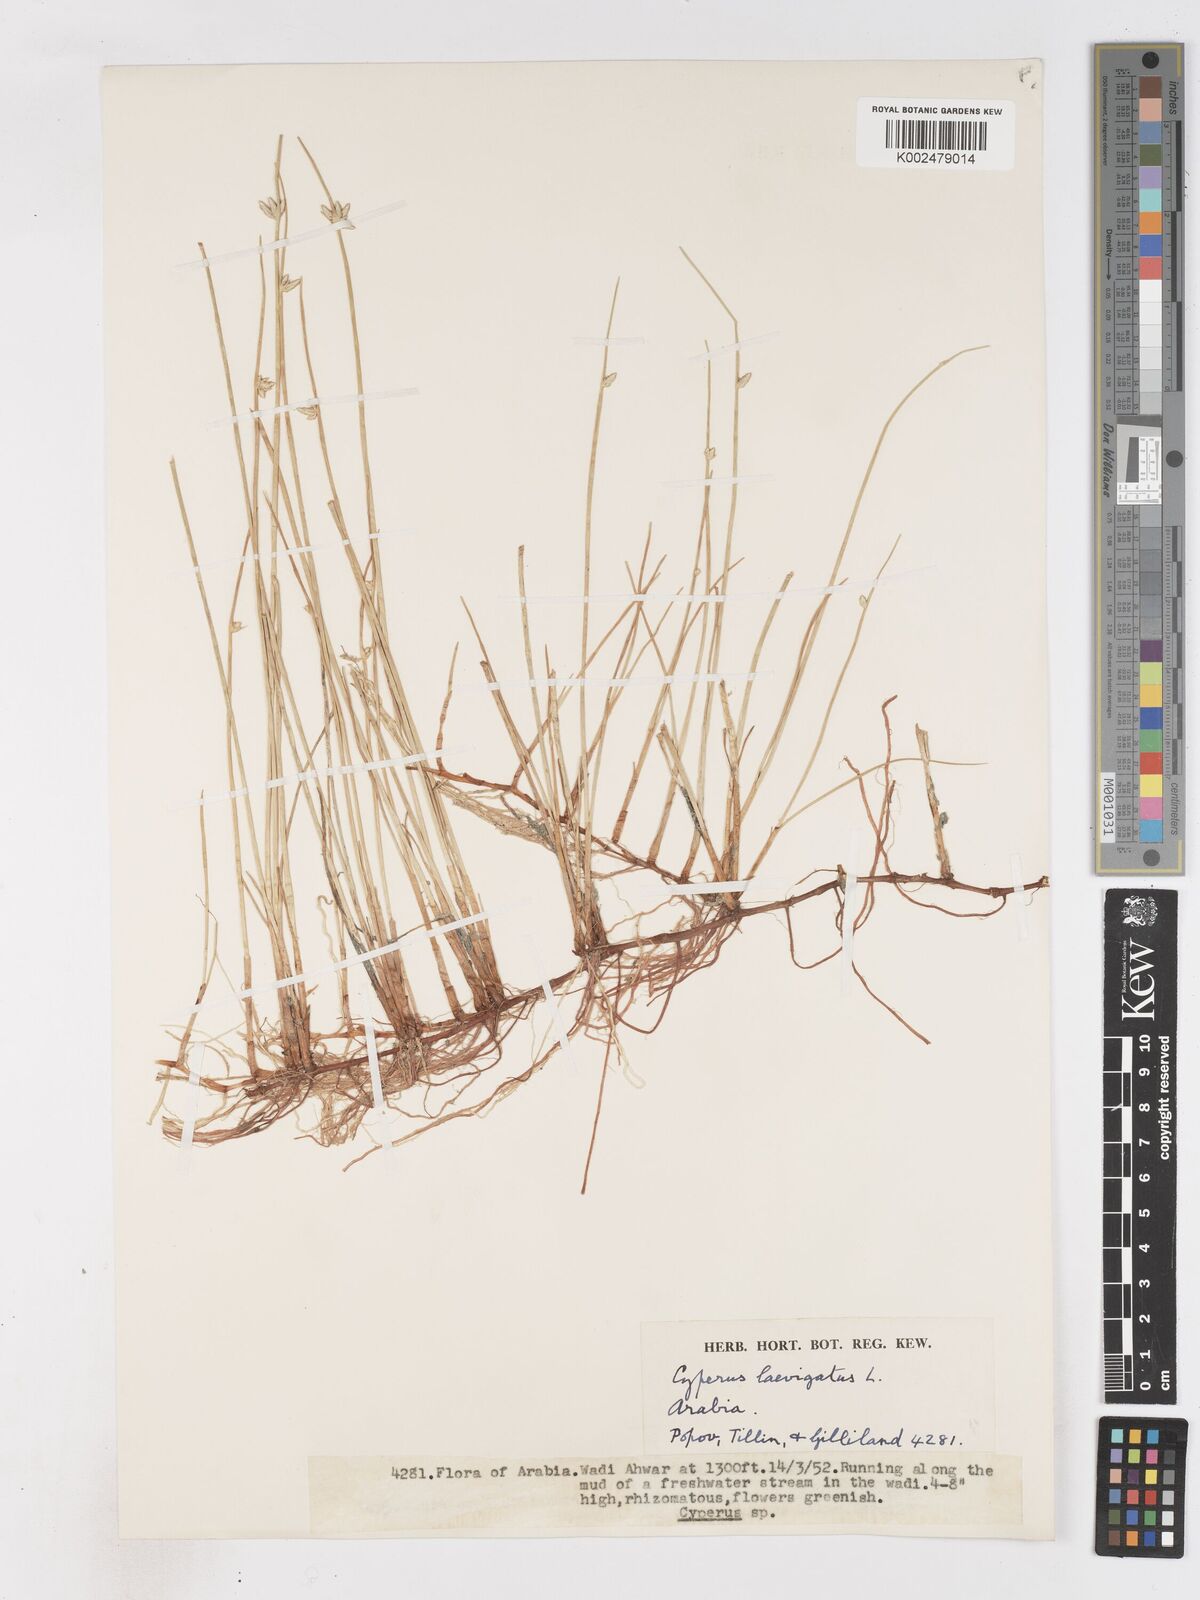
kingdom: Plantae
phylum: Tracheophyta
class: Liliopsida
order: Poales
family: Cyperaceae
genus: Cyperus
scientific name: Cyperus laevigatus
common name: Smooth flat sedge
